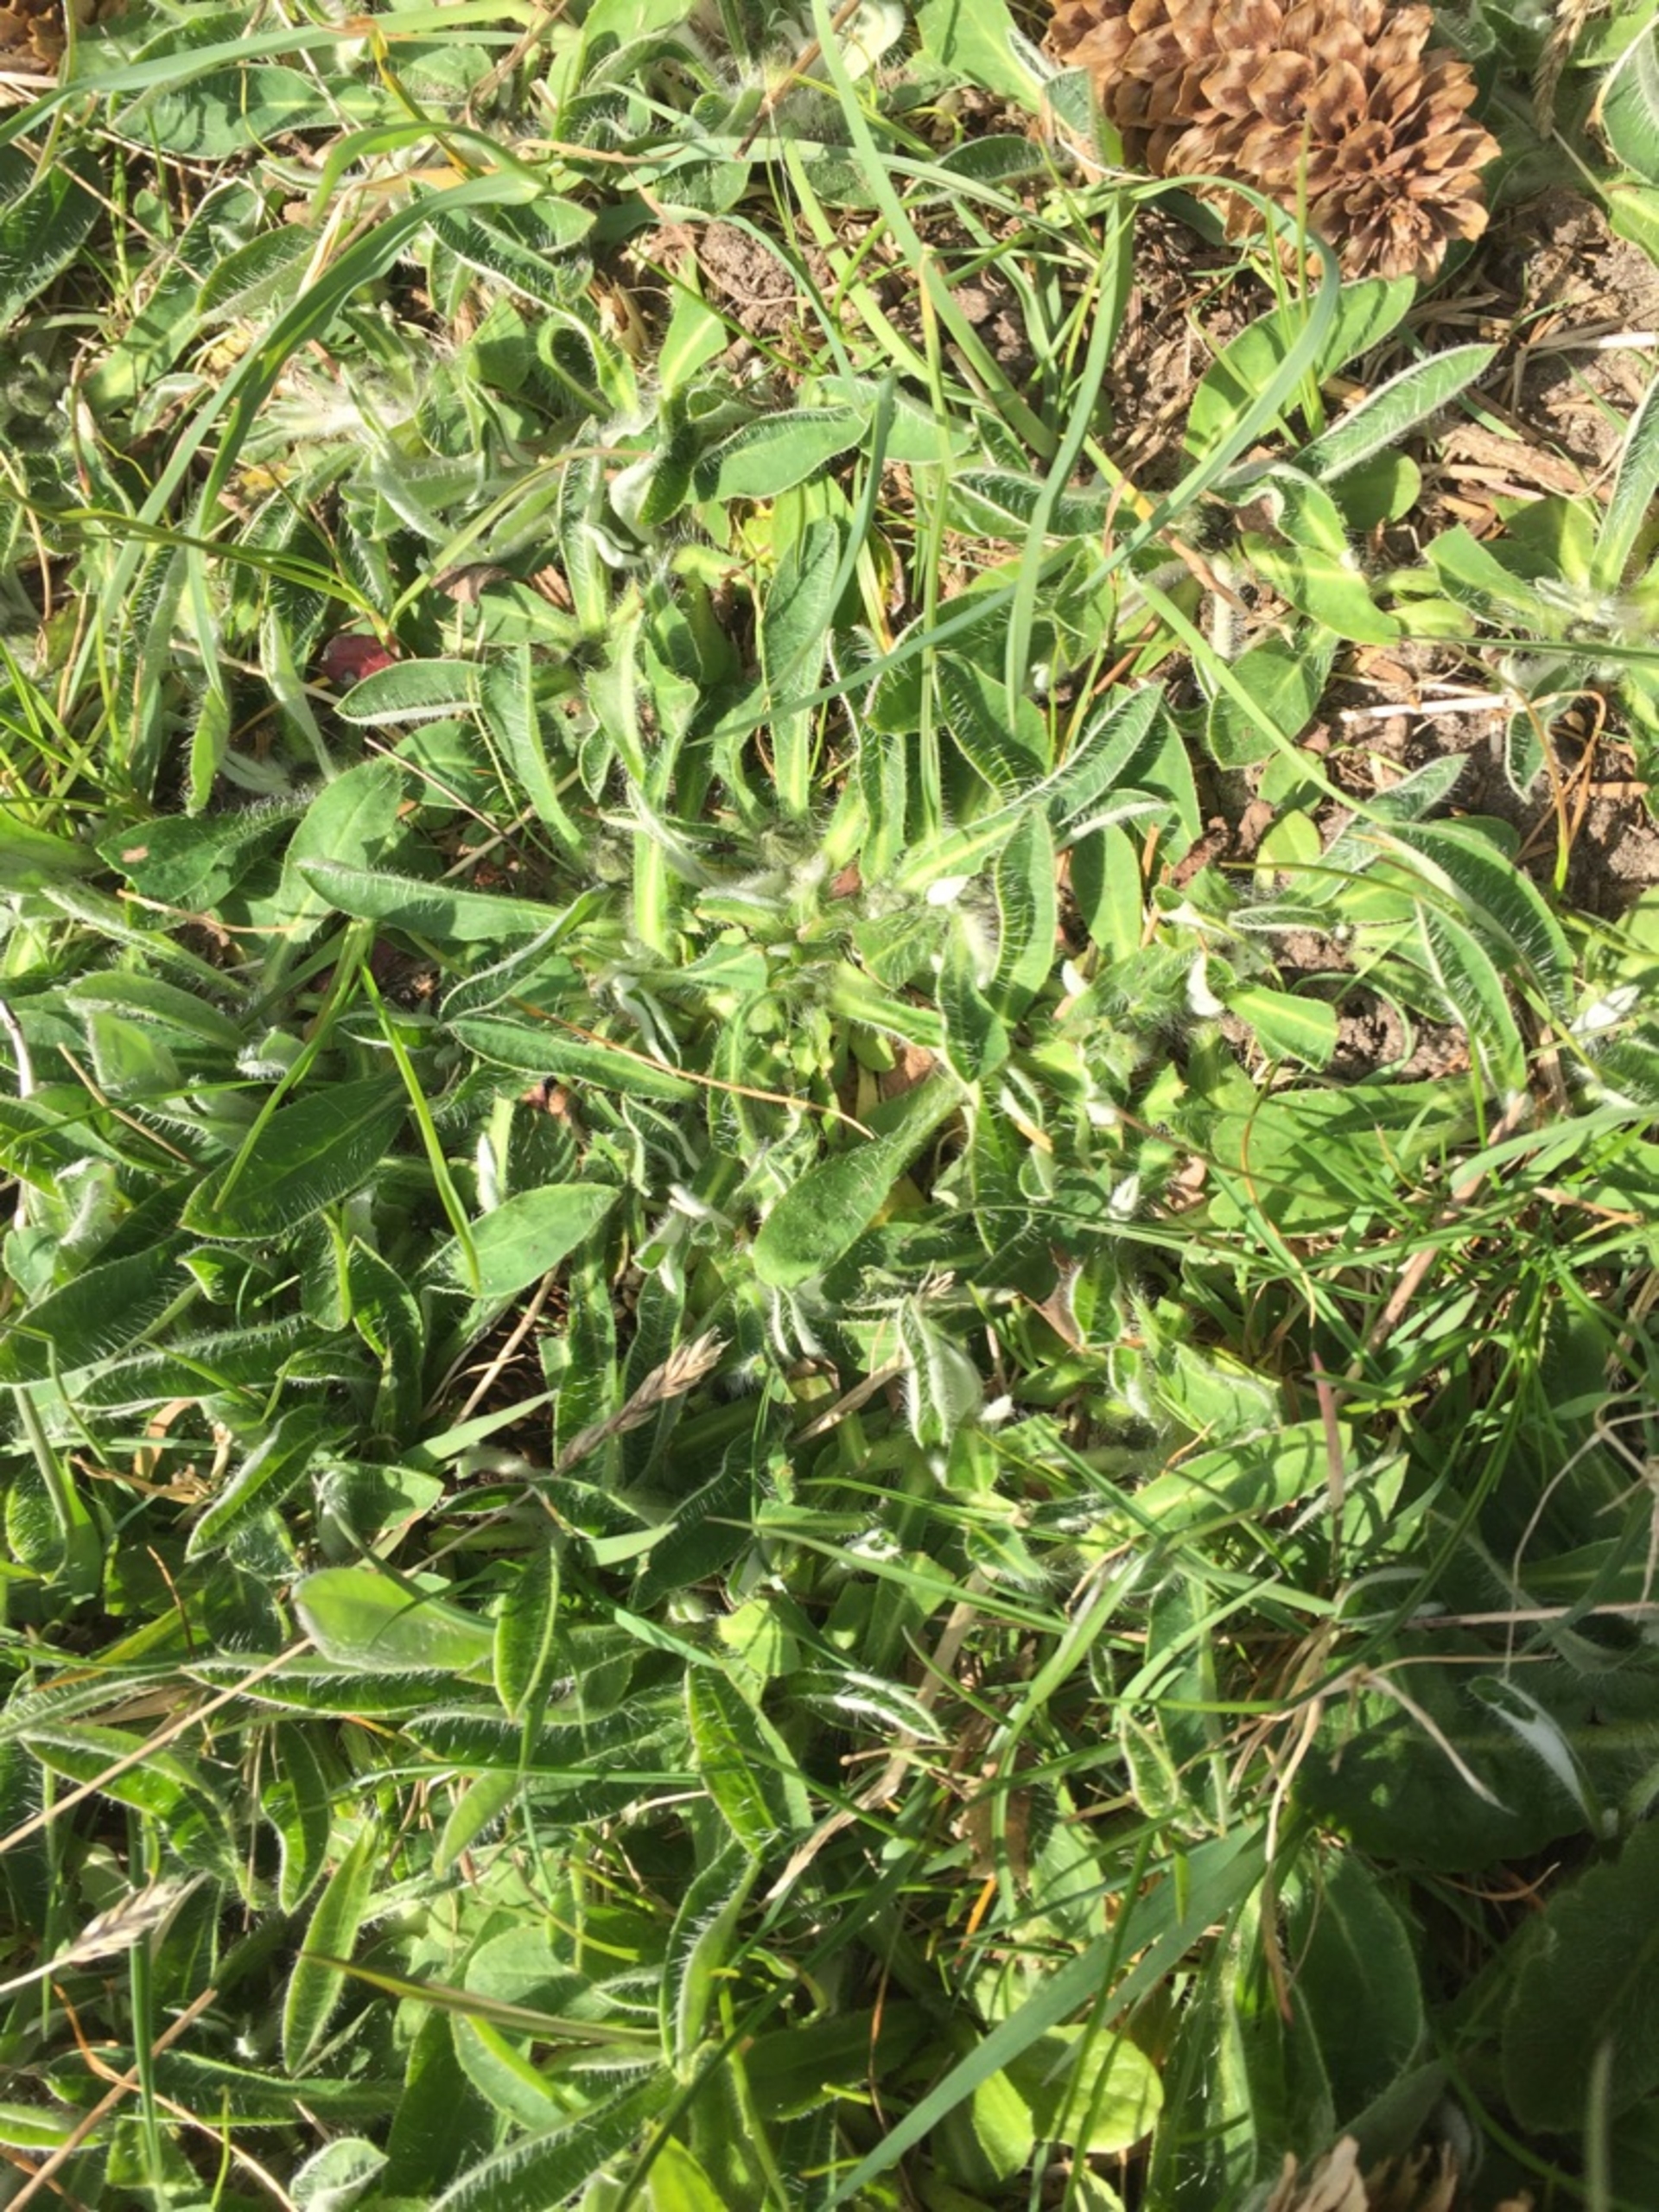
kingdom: Plantae
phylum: Tracheophyta
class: Magnoliopsida
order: Asterales
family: Asteraceae
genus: Pilosella
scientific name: Pilosella officinarum
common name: Håret høgeurt
